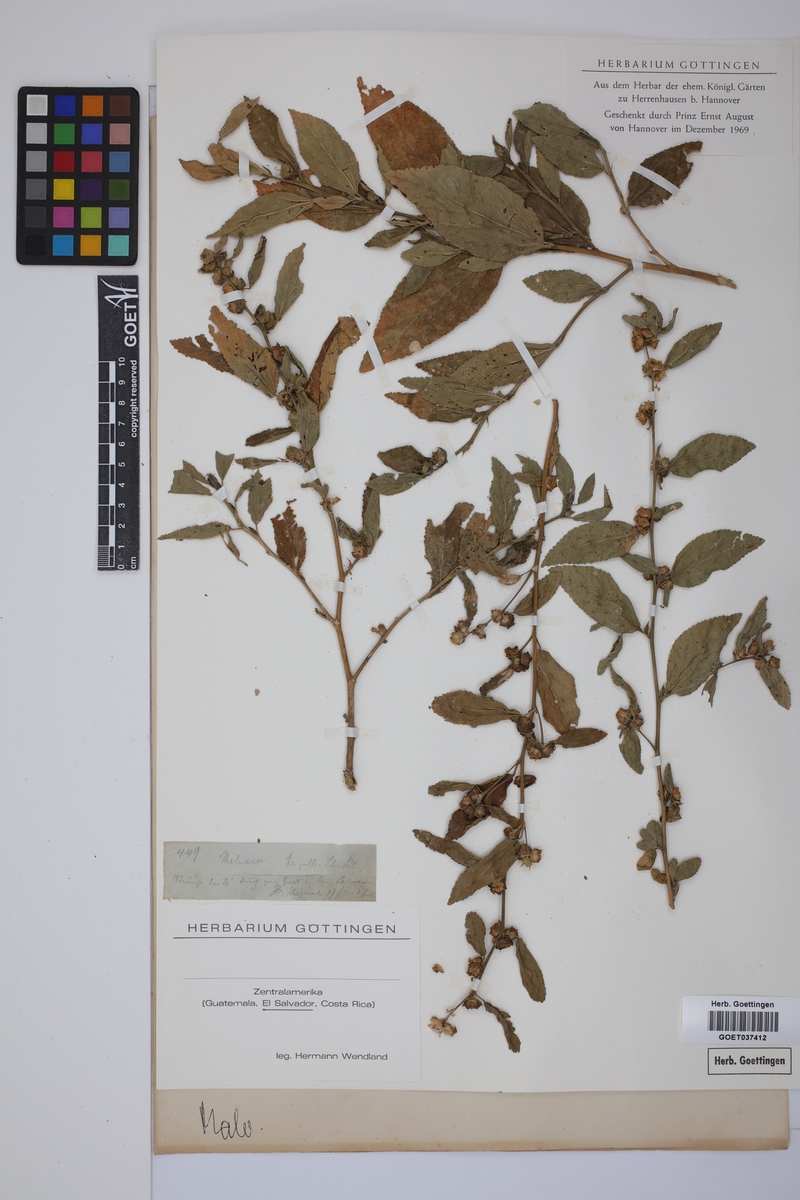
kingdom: Plantae
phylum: Tracheophyta
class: Magnoliopsida
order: Malvales
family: Malvaceae
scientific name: Malvaceae
